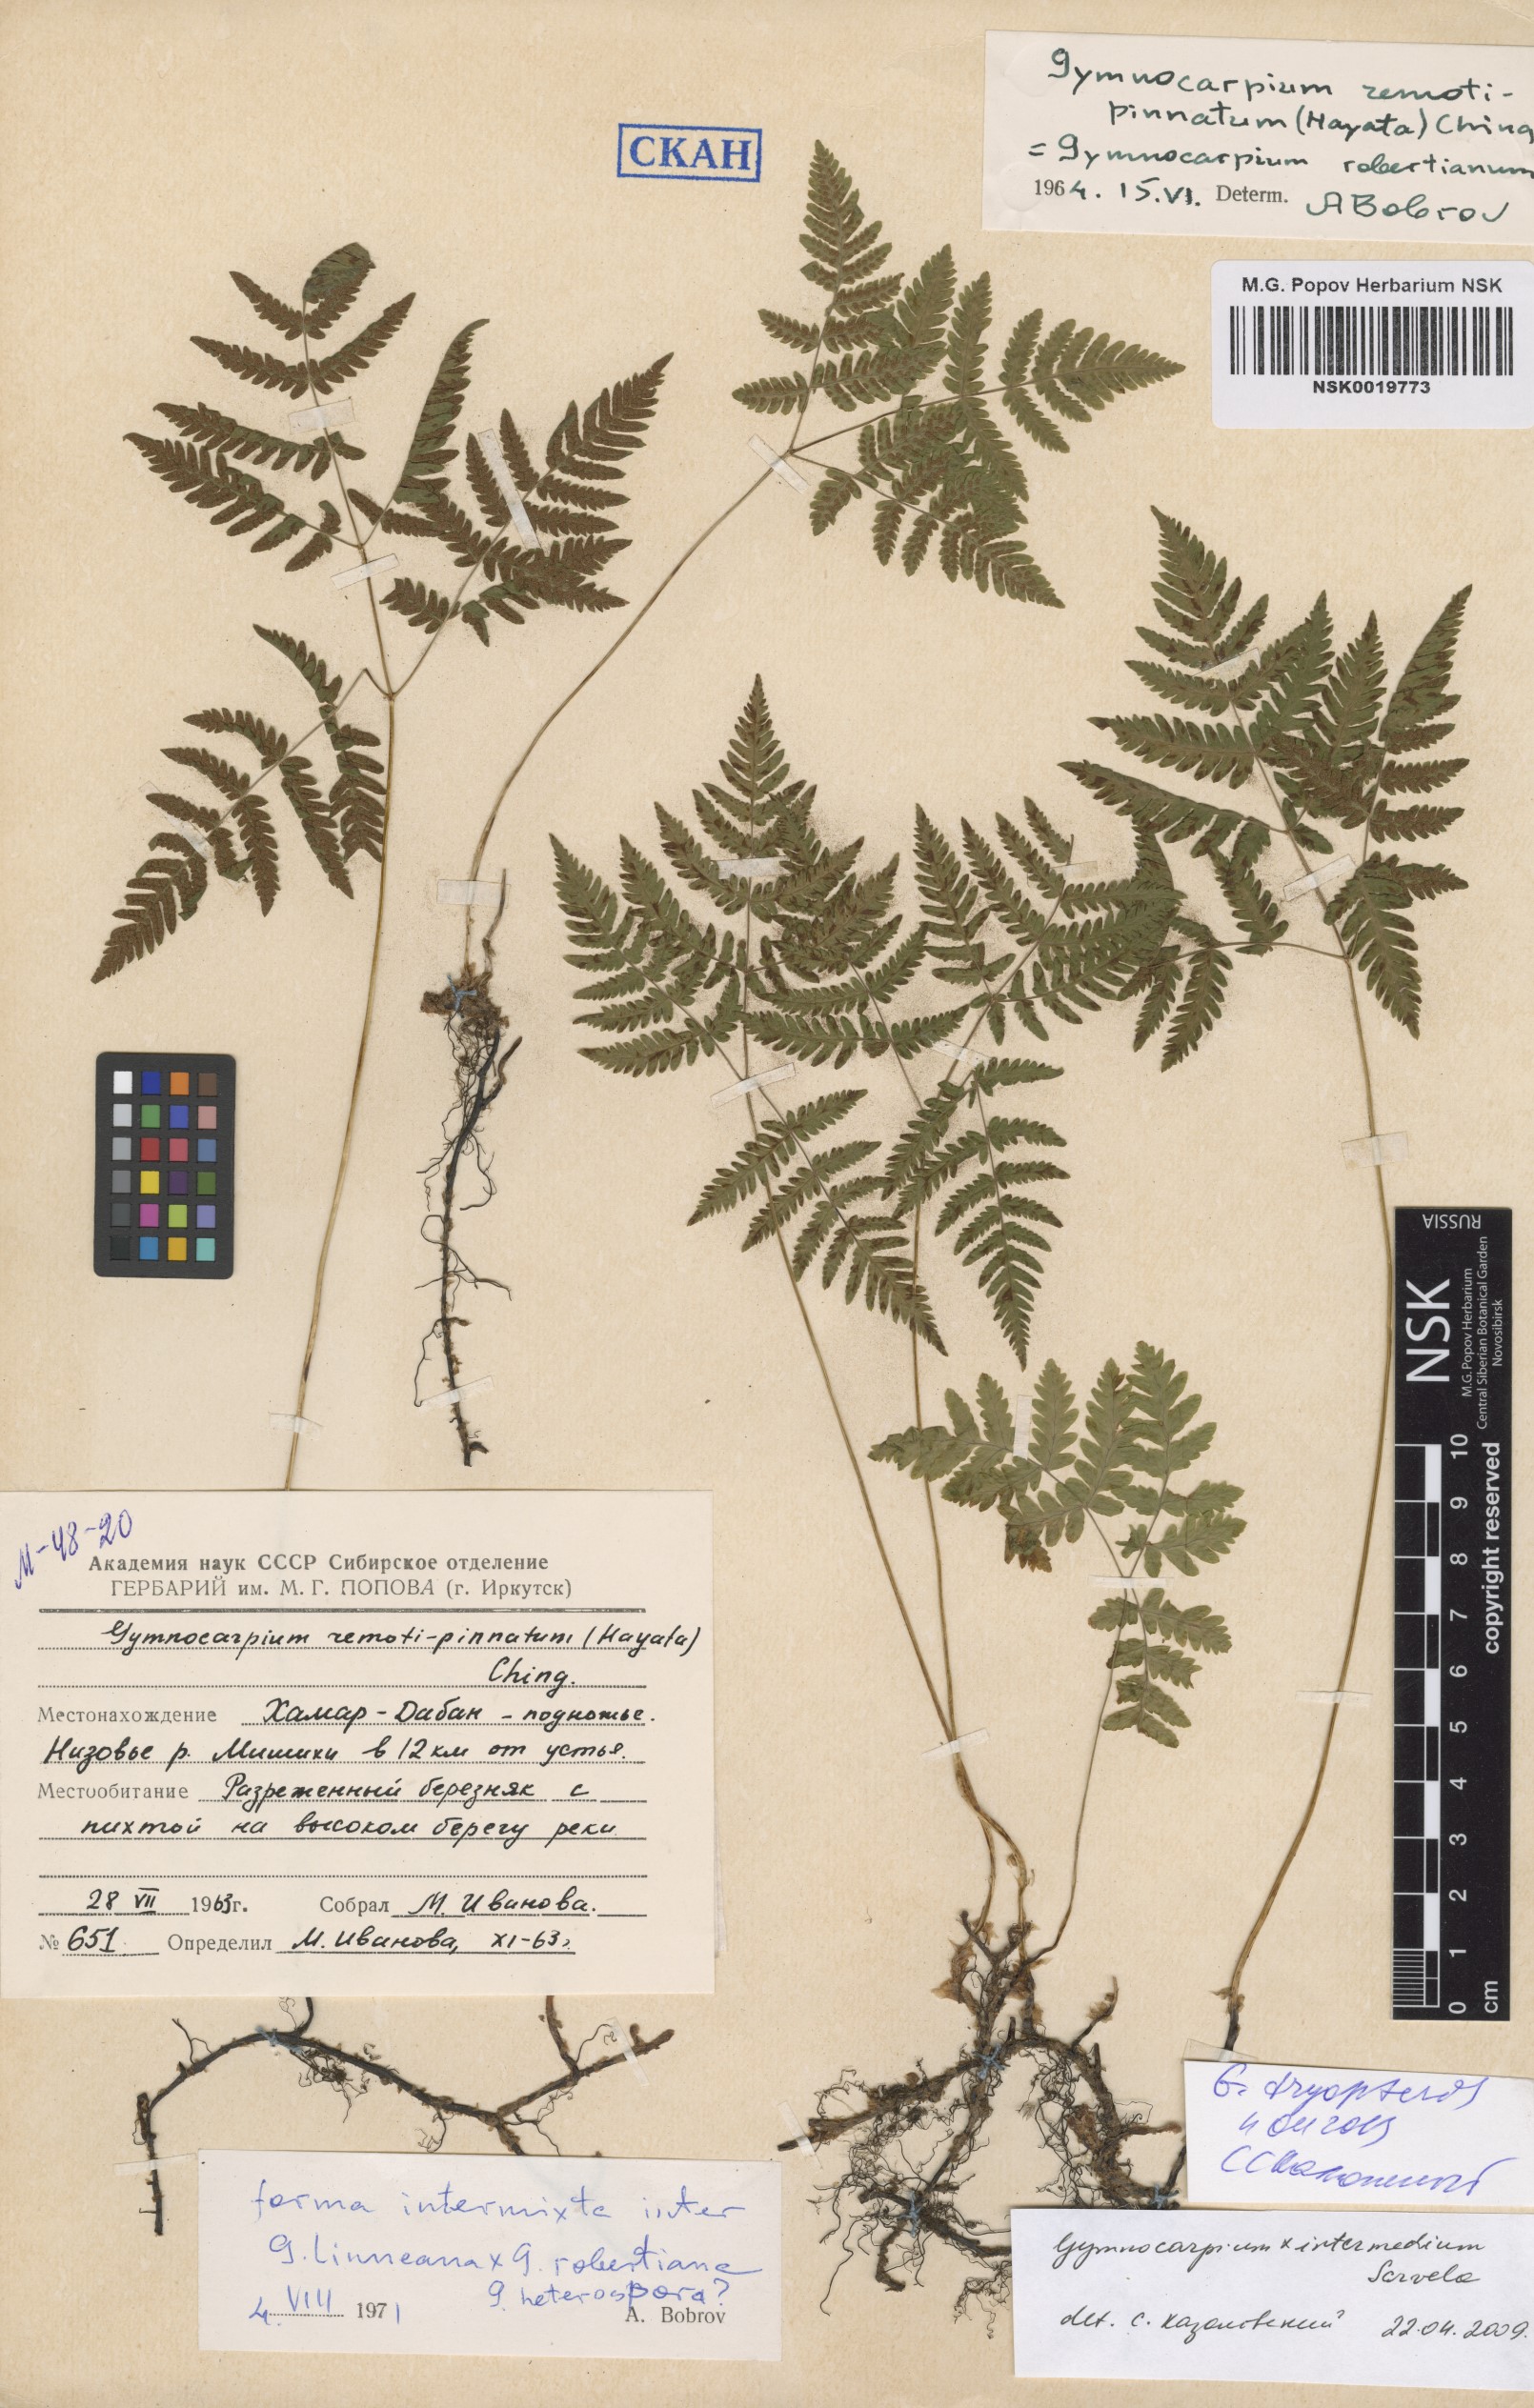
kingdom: Plantae
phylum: Tracheophyta
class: Polypodiopsida
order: Polypodiales
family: Cystopteridaceae
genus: Gymnocarpium
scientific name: Gymnocarpium dryopteris
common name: Oak fern
